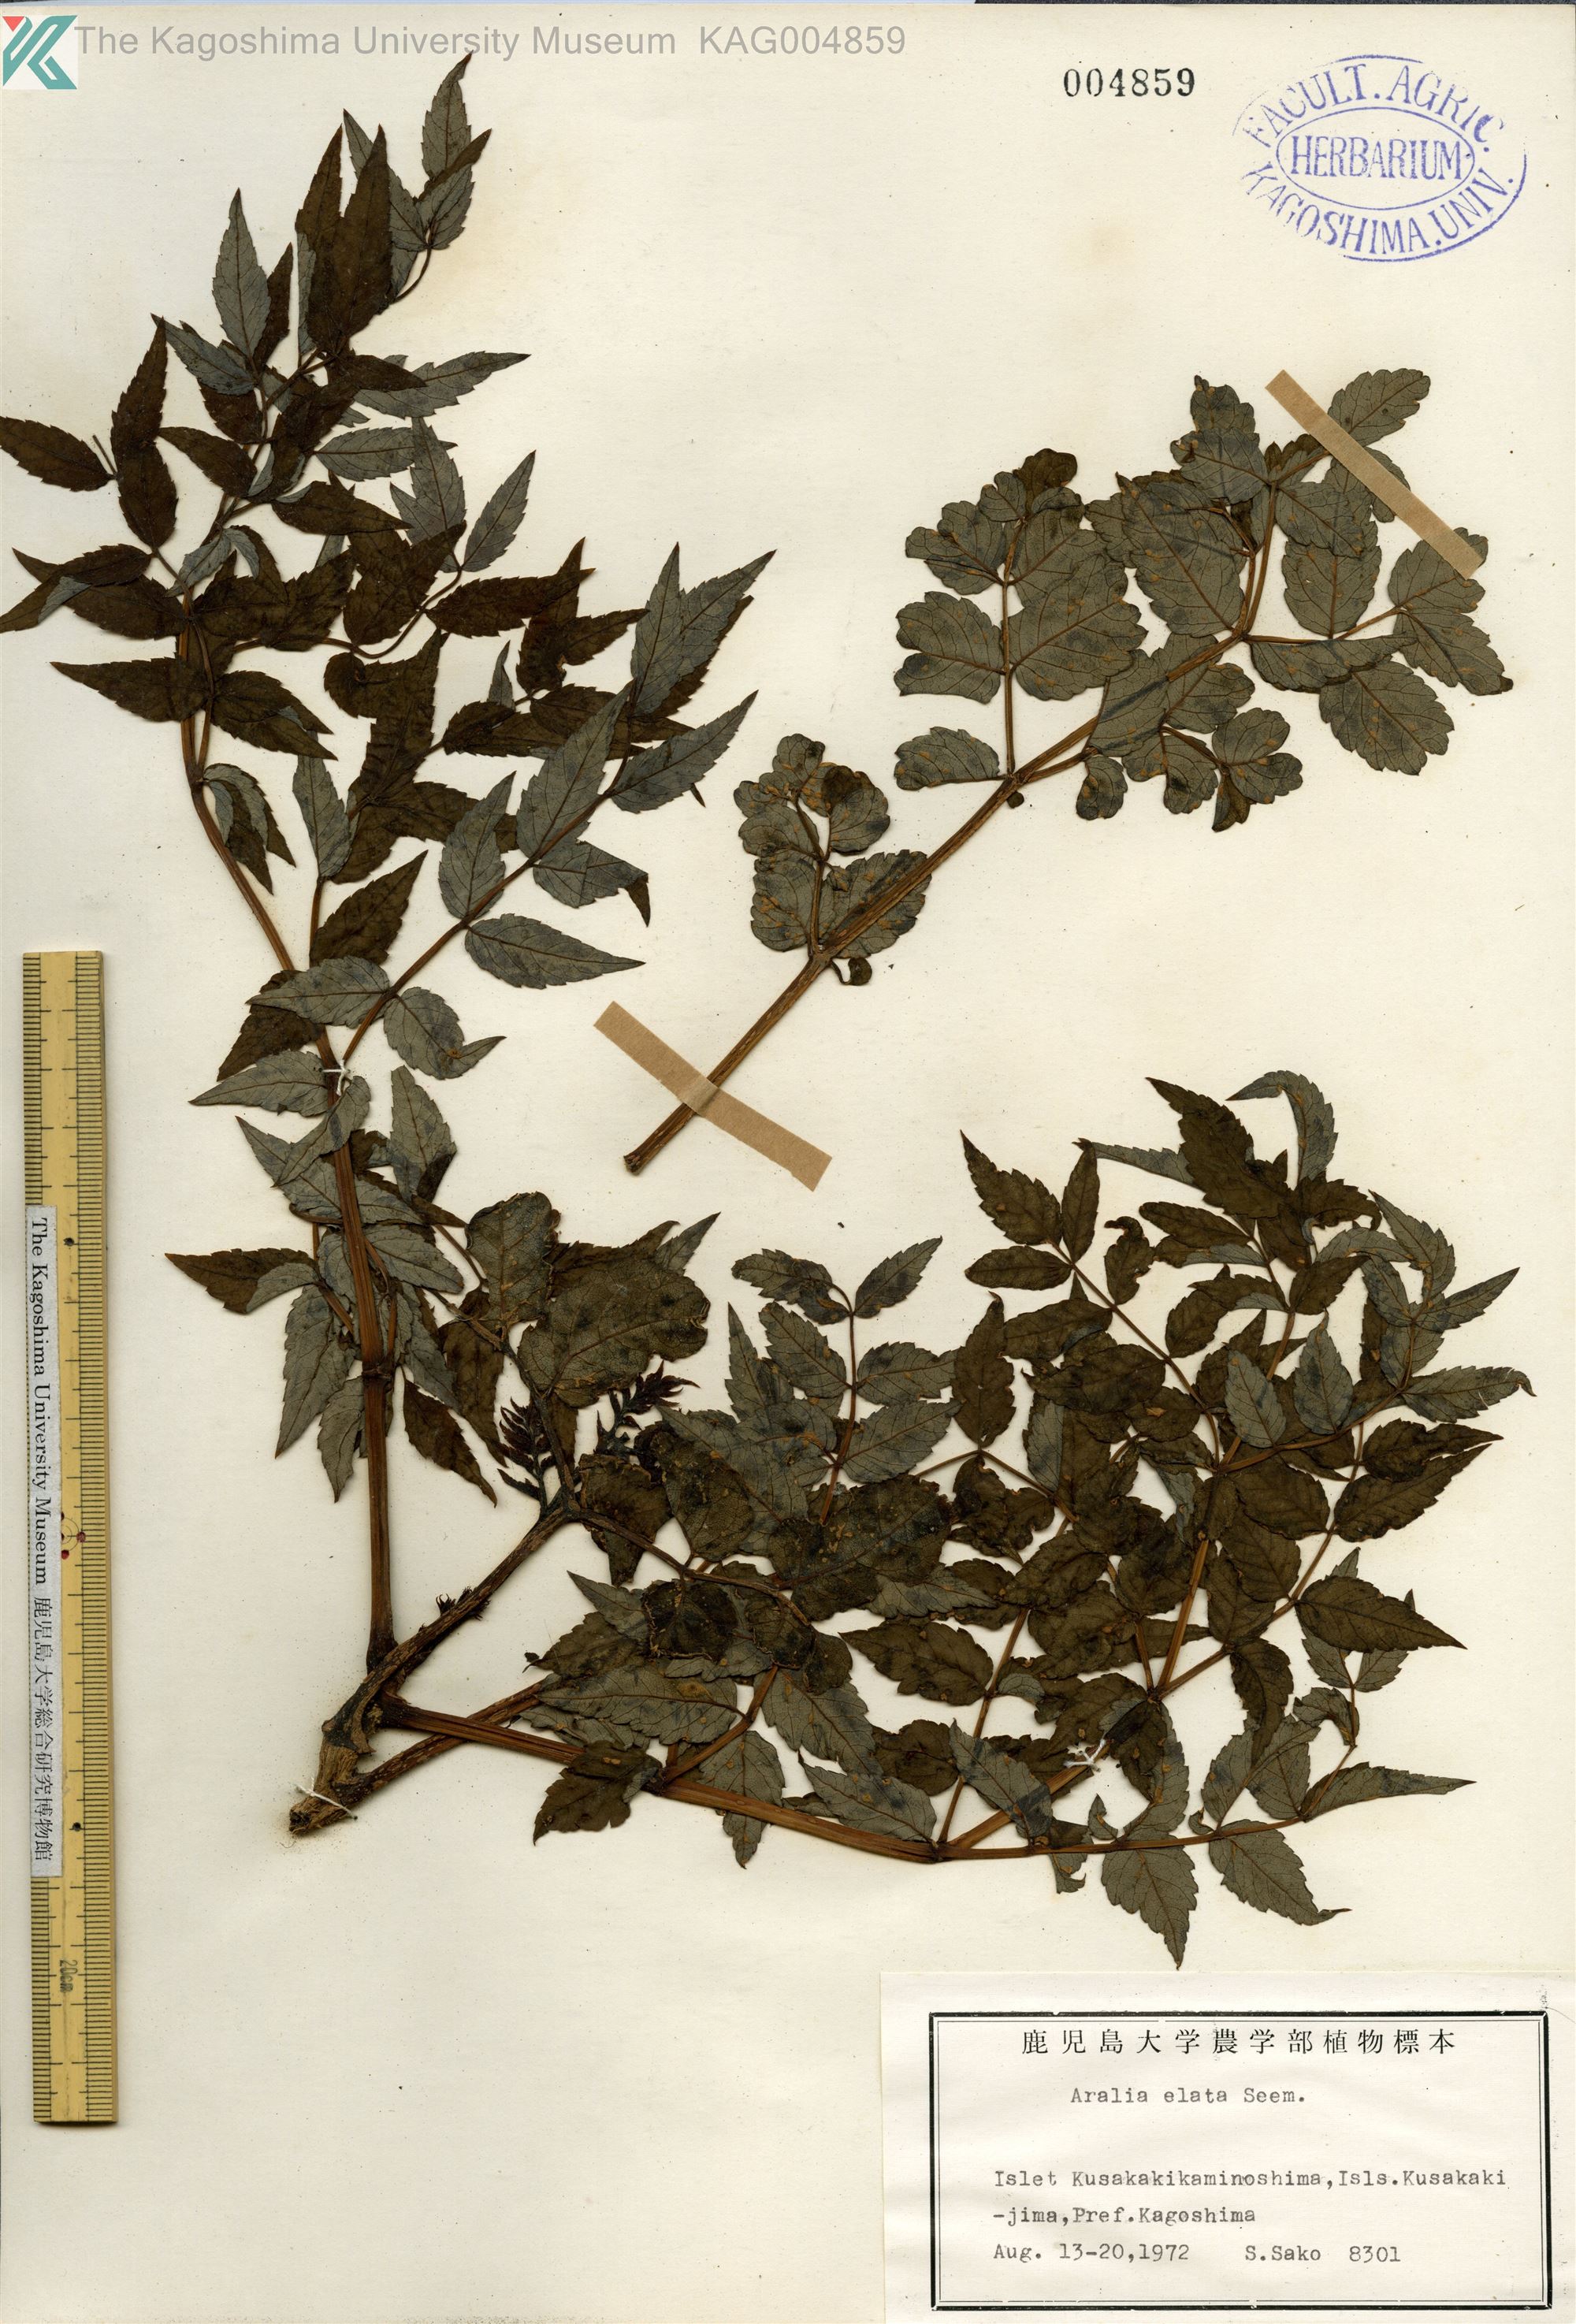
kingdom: Plantae
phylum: Tracheophyta
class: Magnoliopsida
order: Apiales
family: Araliaceae
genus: Aralia
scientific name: Aralia elata
